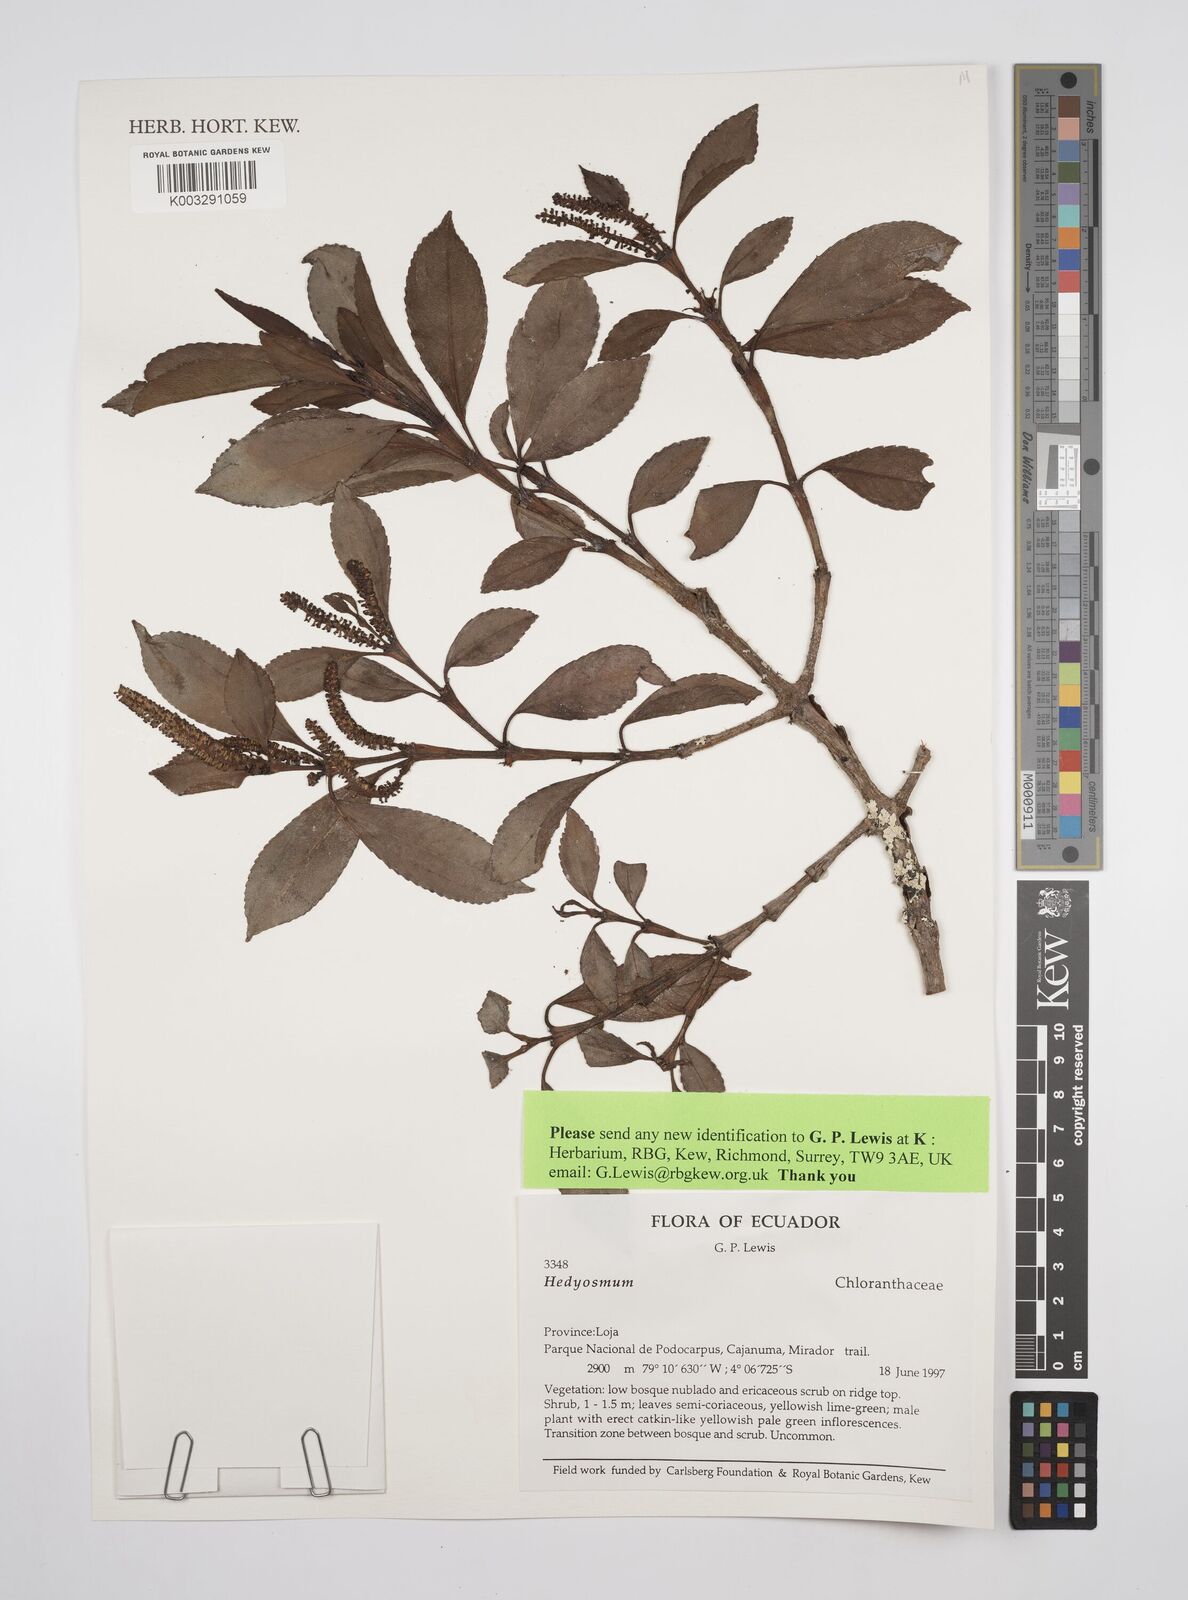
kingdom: Plantae
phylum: Tracheophyta
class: Magnoliopsida
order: Chloranthales
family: Chloranthaceae
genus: Hedyosmum
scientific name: Hedyosmum
